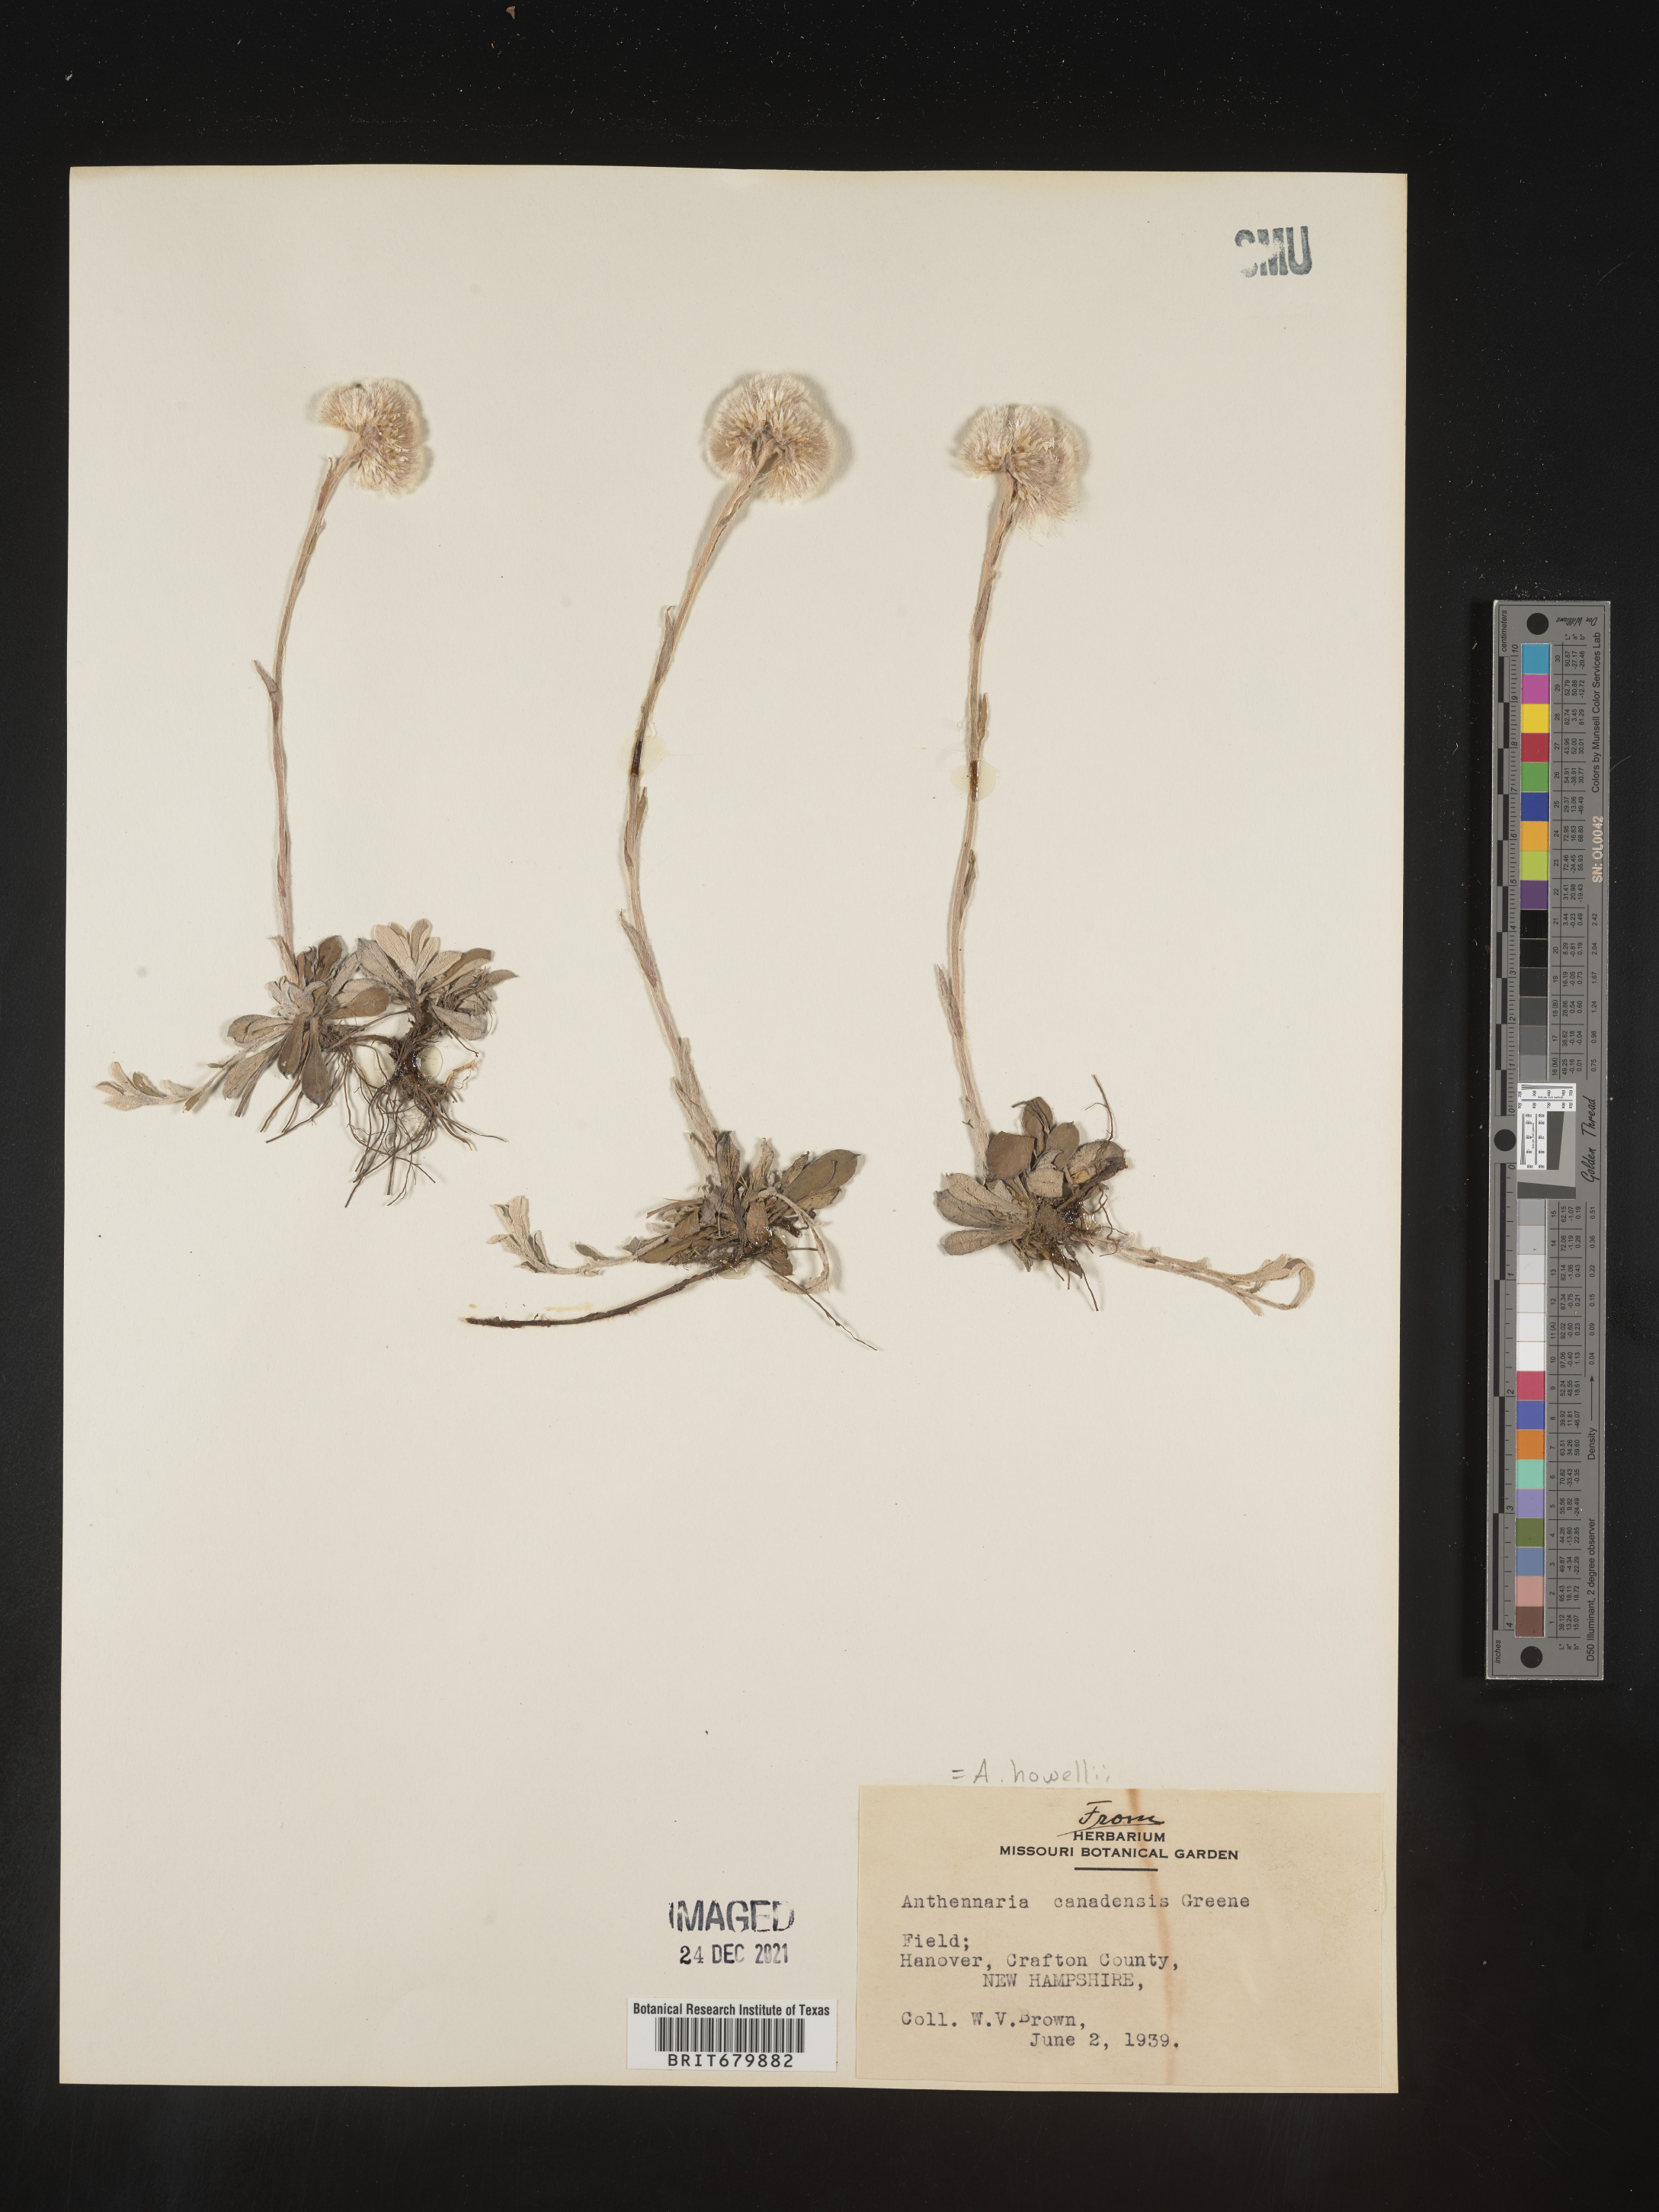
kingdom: Plantae
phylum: Tracheophyta
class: Magnoliopsida
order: Asterales
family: Asteraceae
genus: Antennaria
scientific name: Antennaria howellii
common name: Howell's pussytoes
